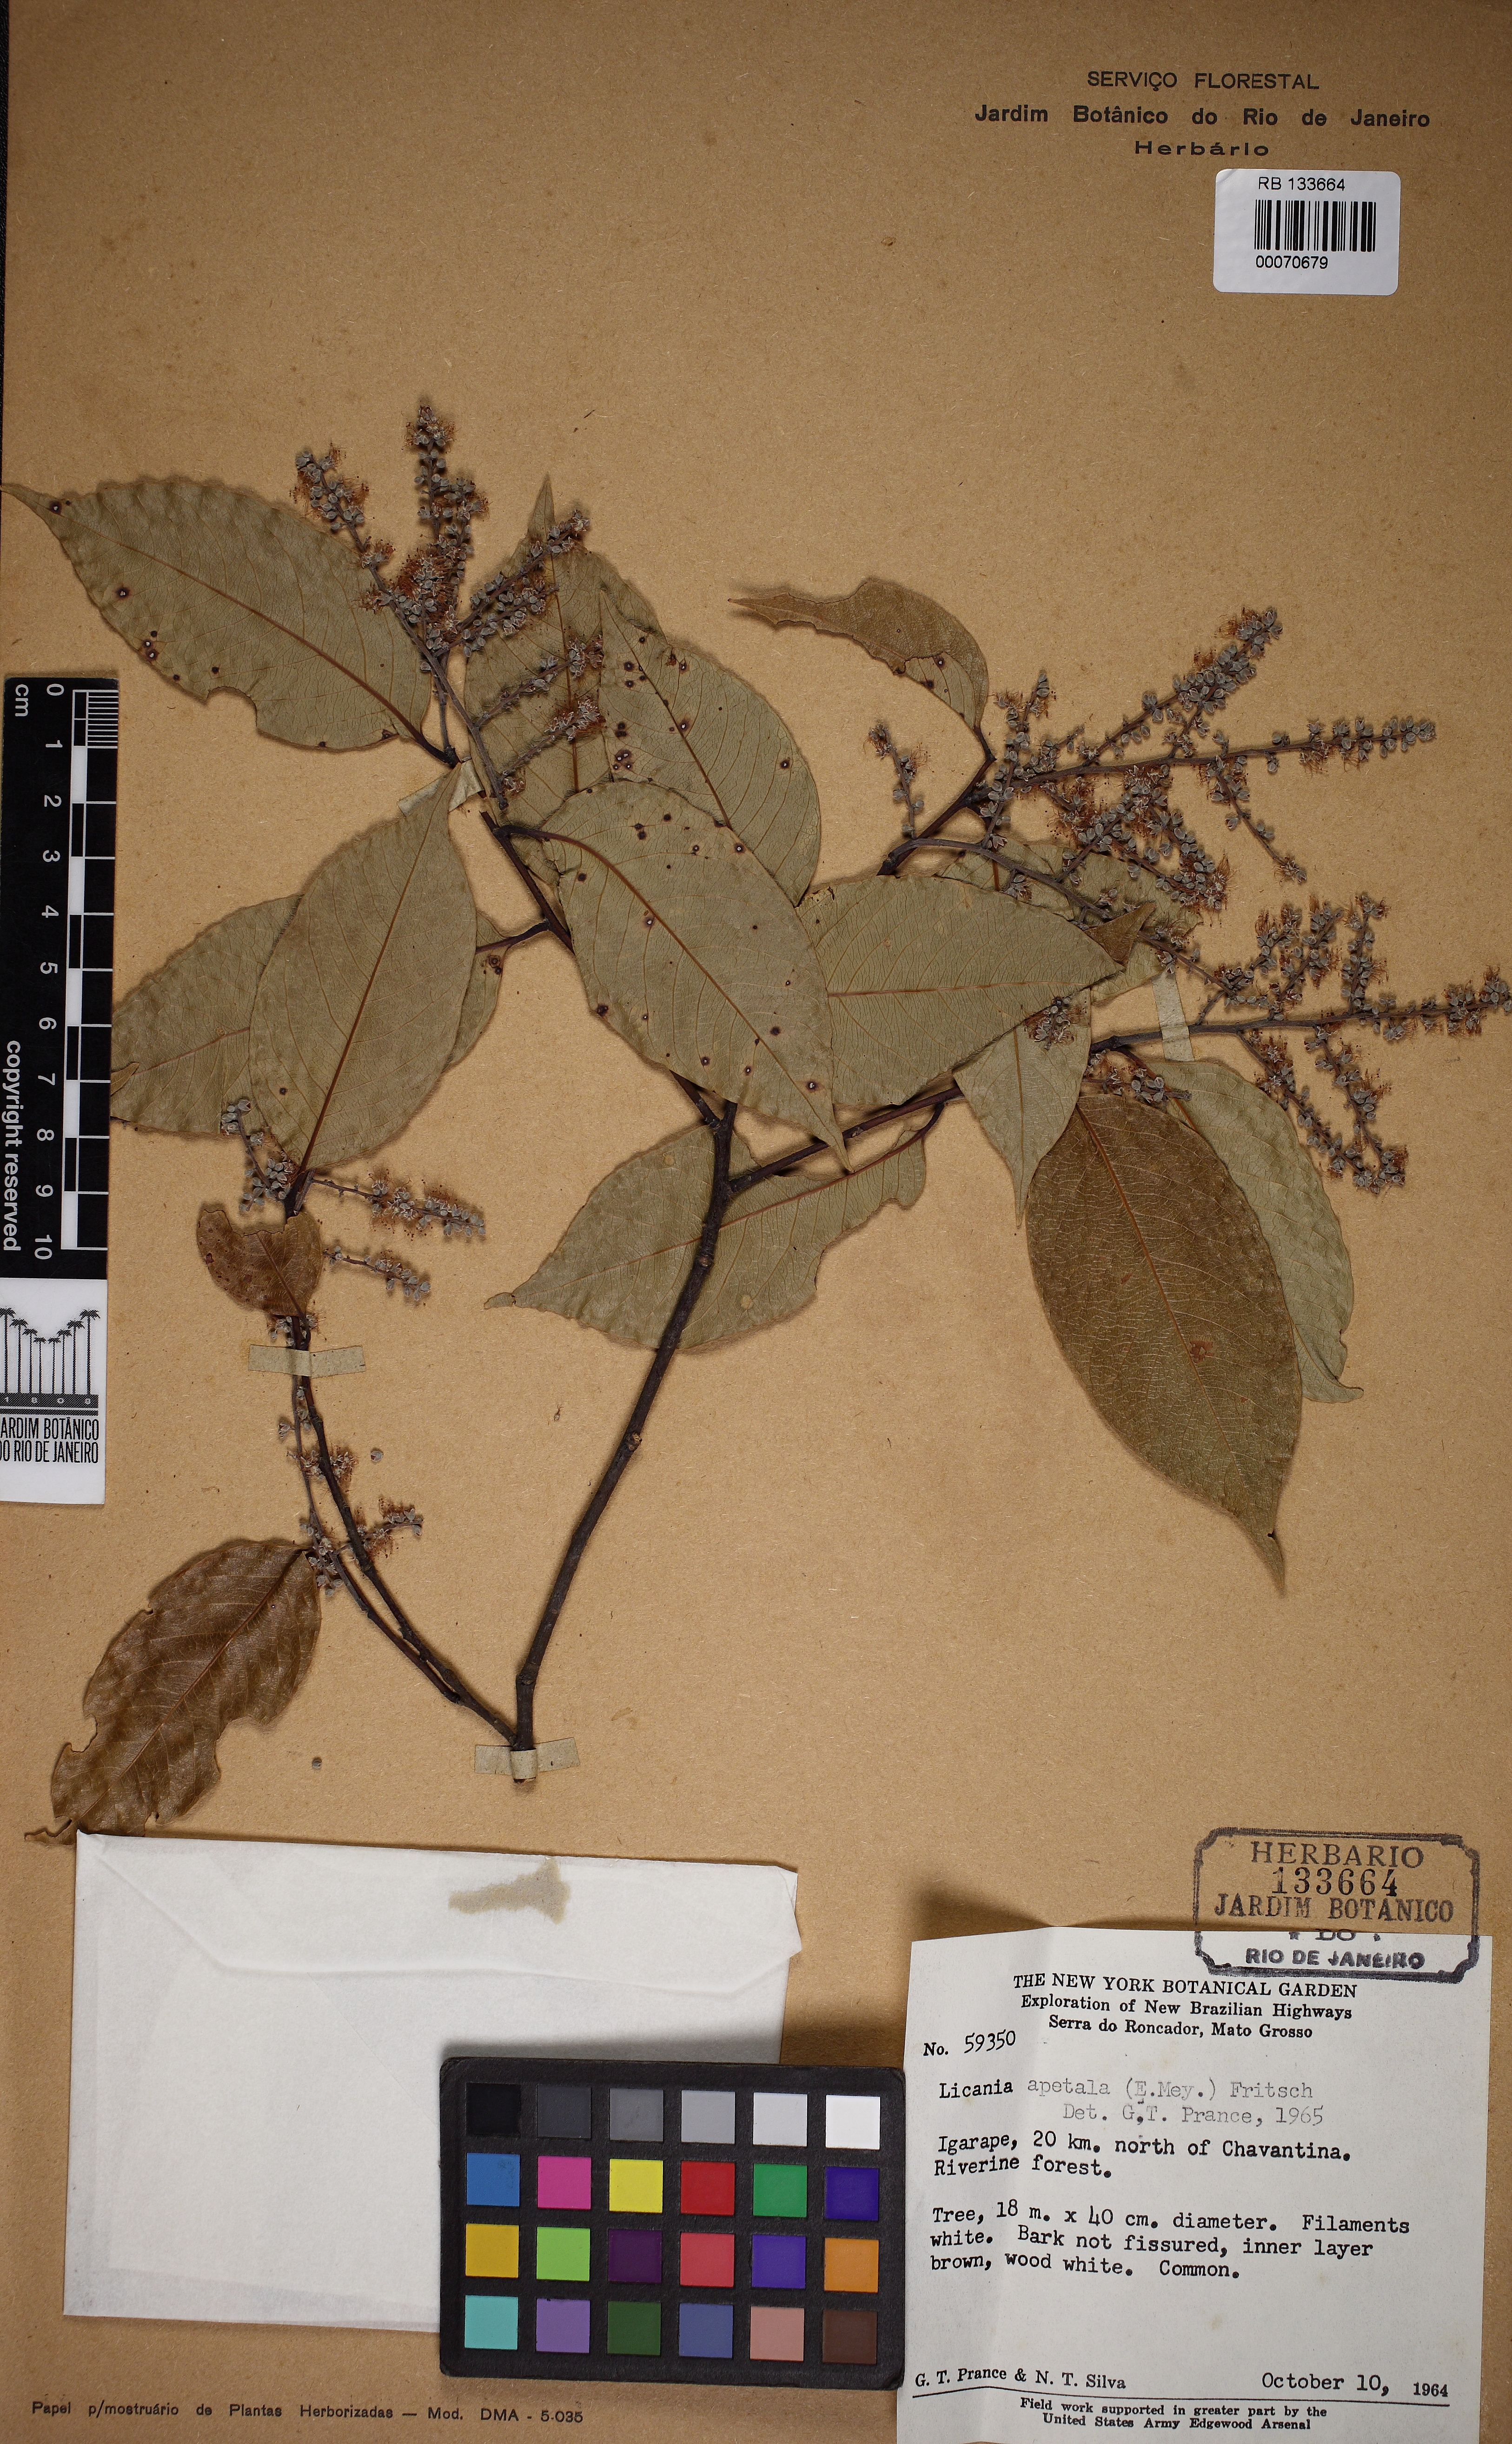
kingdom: Plantae
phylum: Tracheophyta
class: Magnoliopsida
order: Malpighiales
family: Chrysobalanaceae
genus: Leptobalanus
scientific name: Leptobalanus apetalus
